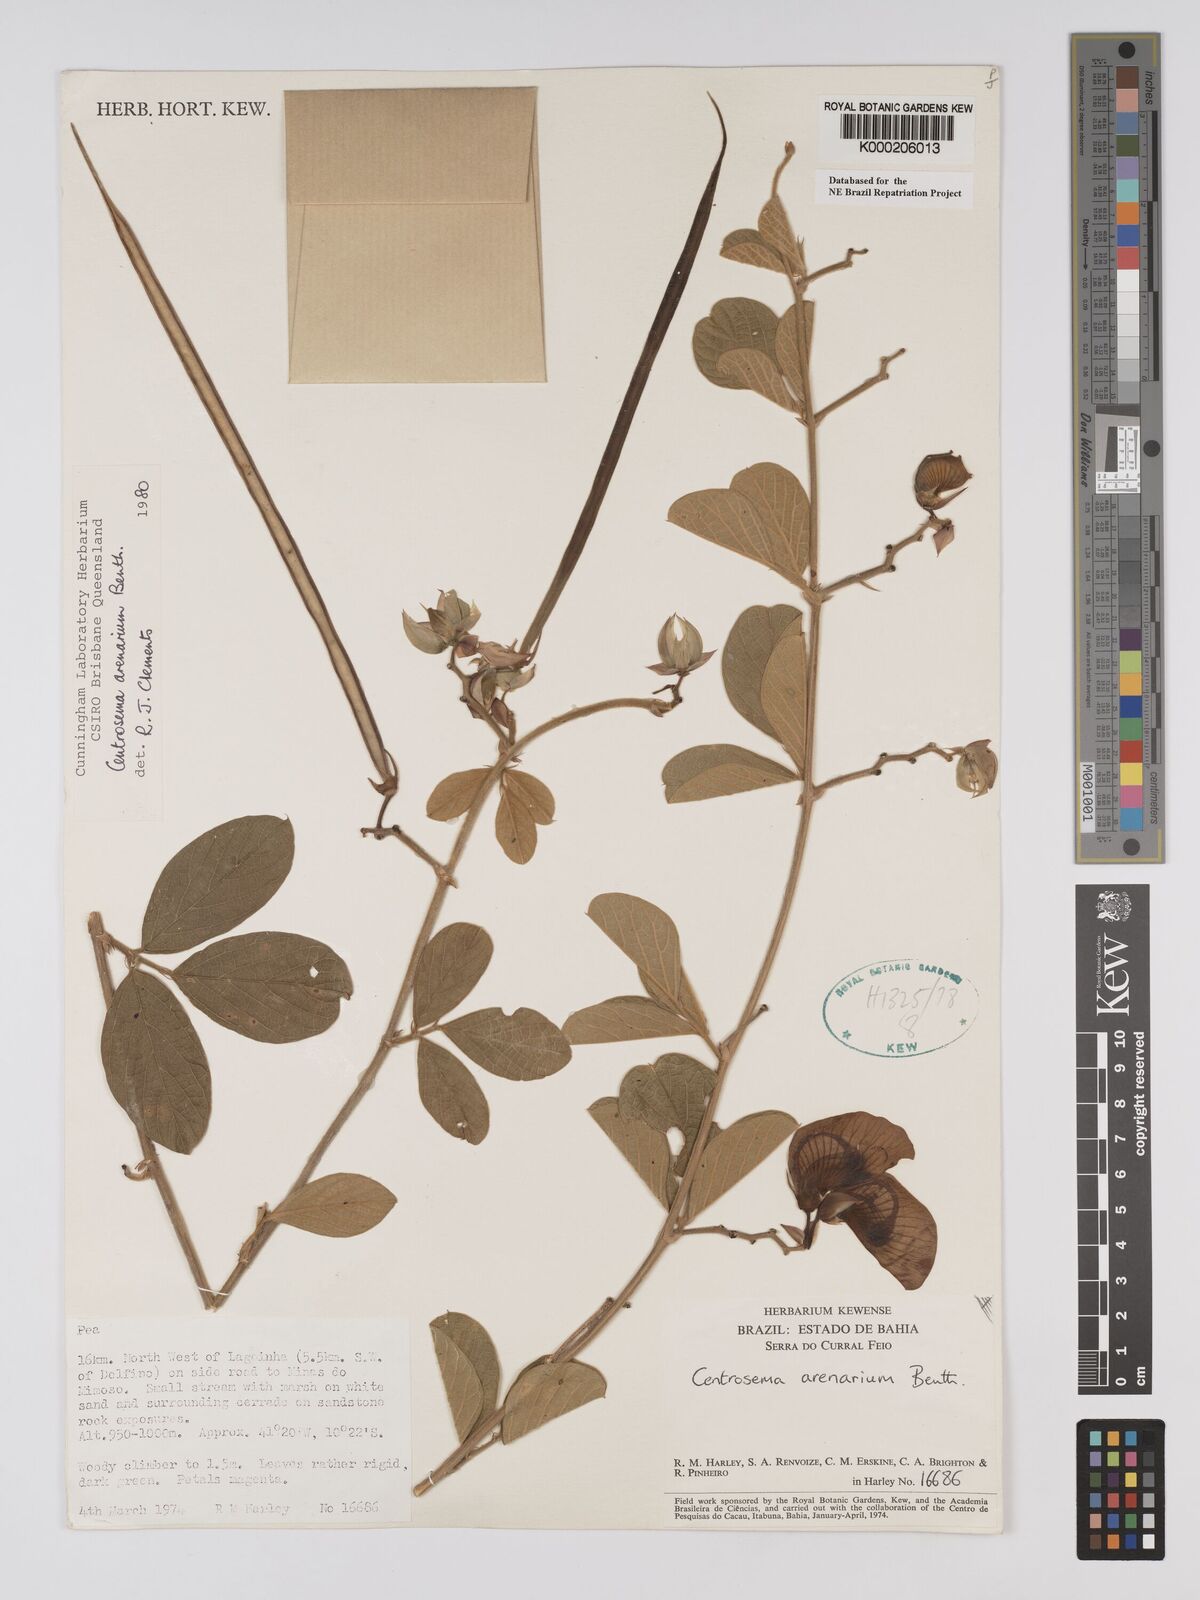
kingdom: Plantae
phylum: Tracheophyta
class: Magnoliopsida
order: Fabales
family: Fabaceae
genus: Centrosema
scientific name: Centrosema arenarium
